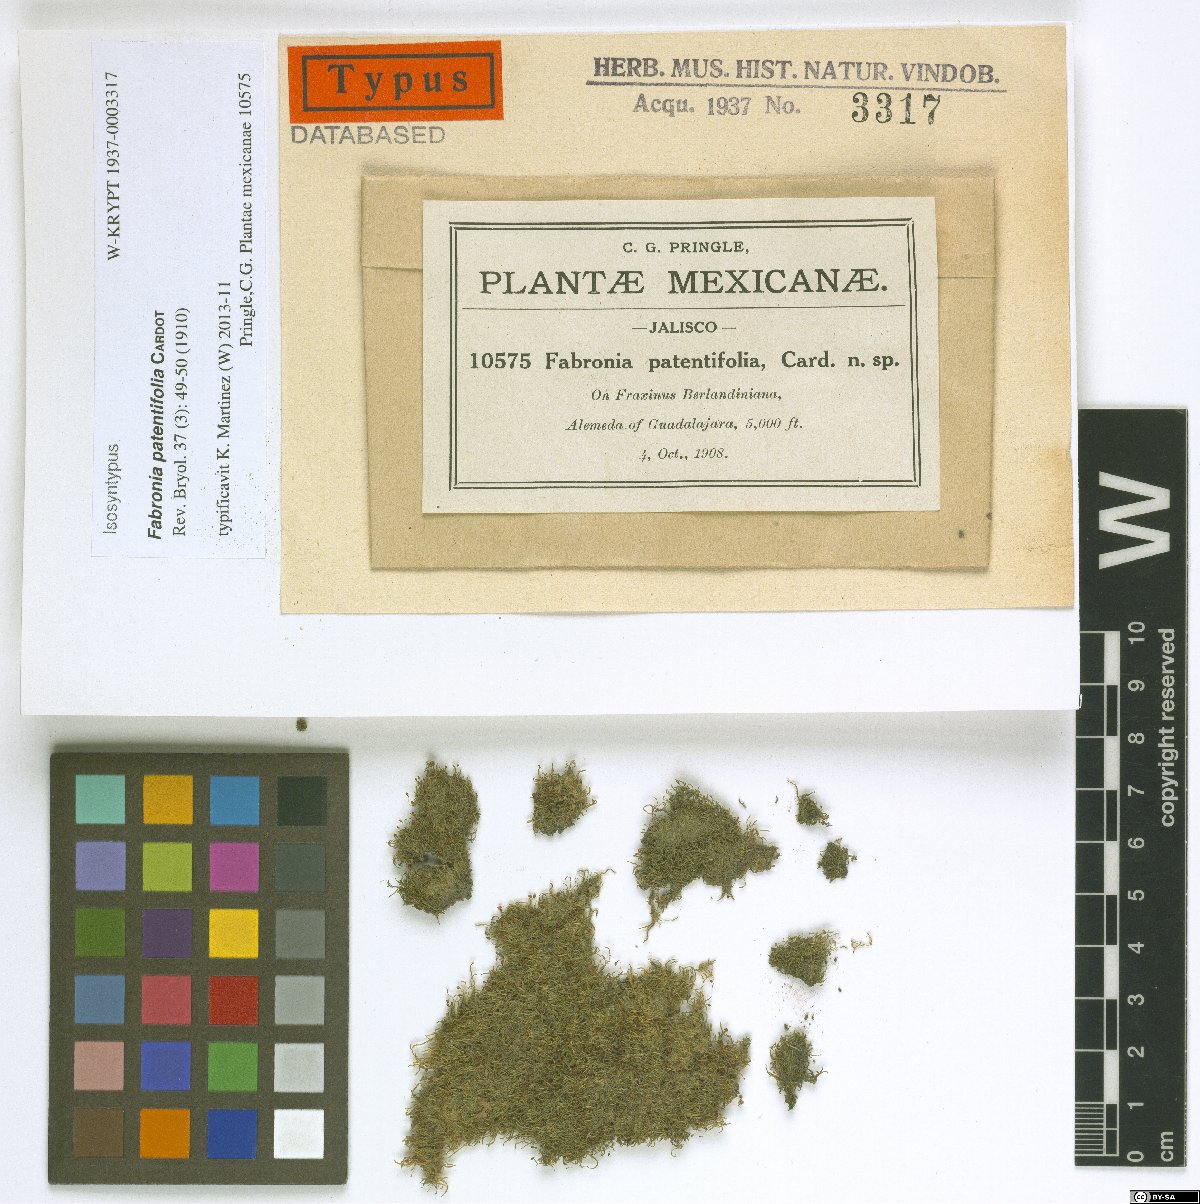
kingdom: Plantae
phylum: Bryophyta
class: Bryopsida
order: Hypnales
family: Fabroniaceae
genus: Fabronia
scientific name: Fabronia ciliaris
